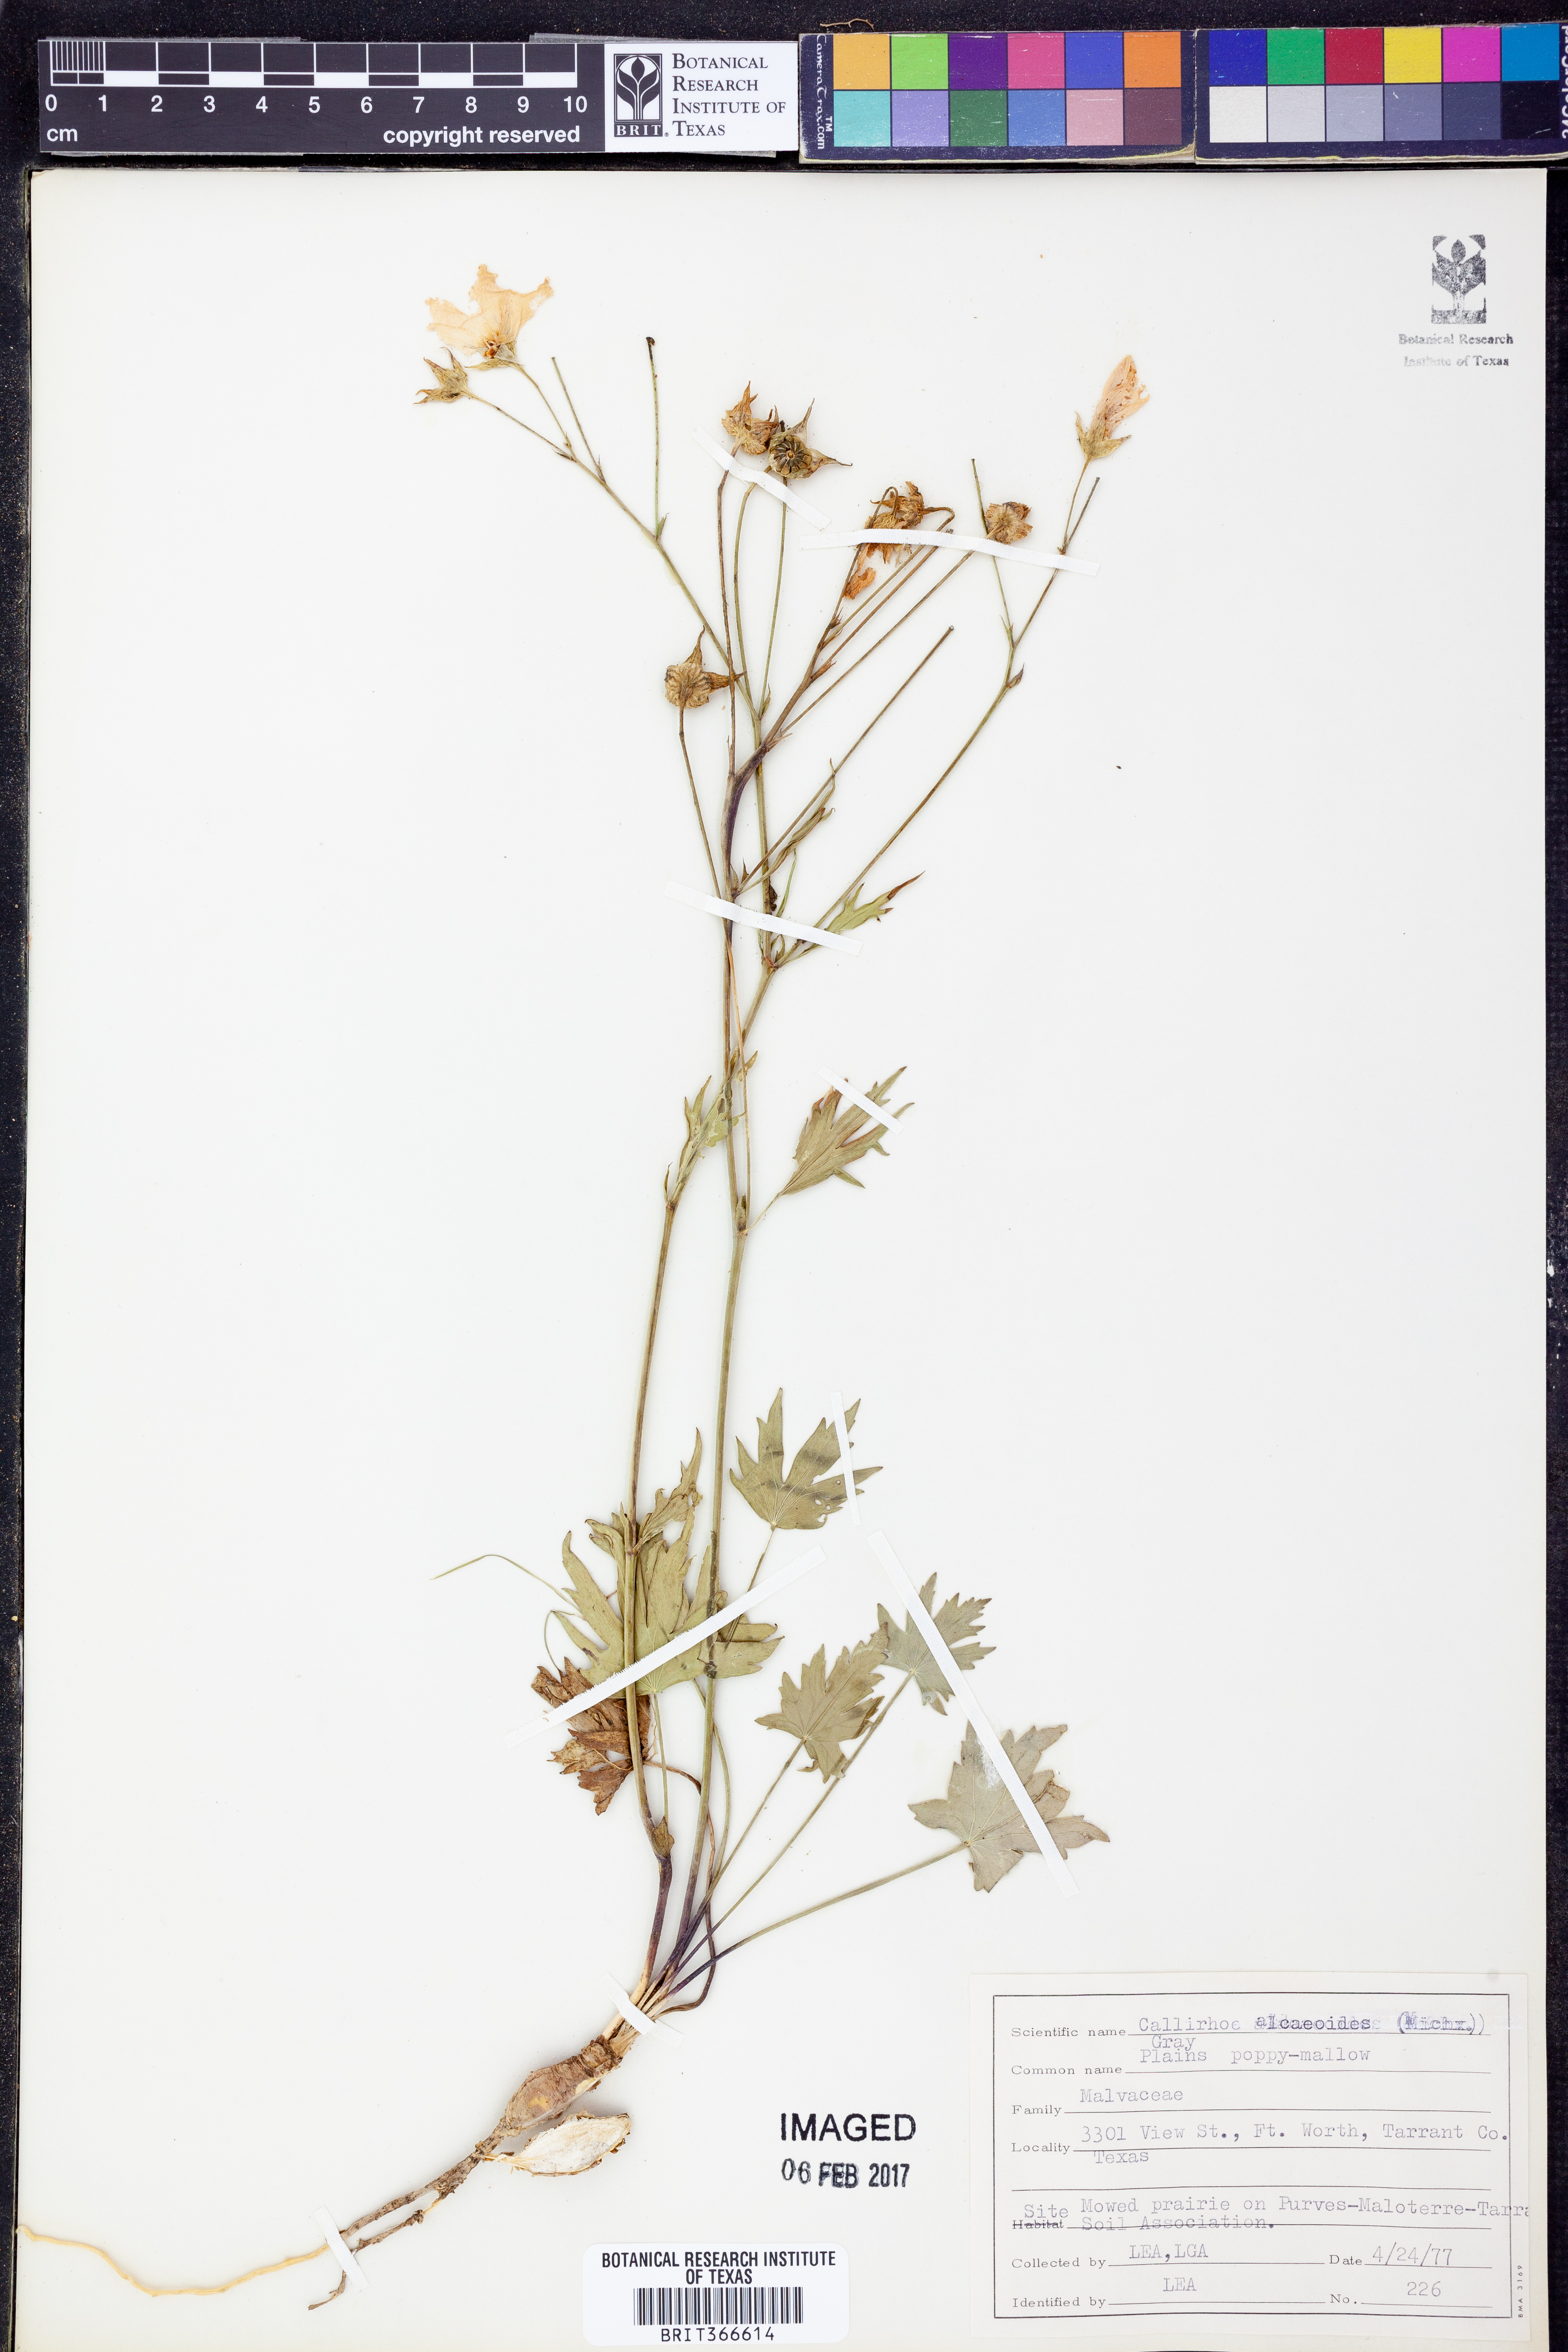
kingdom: Plantae
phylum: Tracheophyta
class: Magnoliopsida
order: Malvales
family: Malvaceae
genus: Callirhoe
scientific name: Callirhoe alcaeoides
